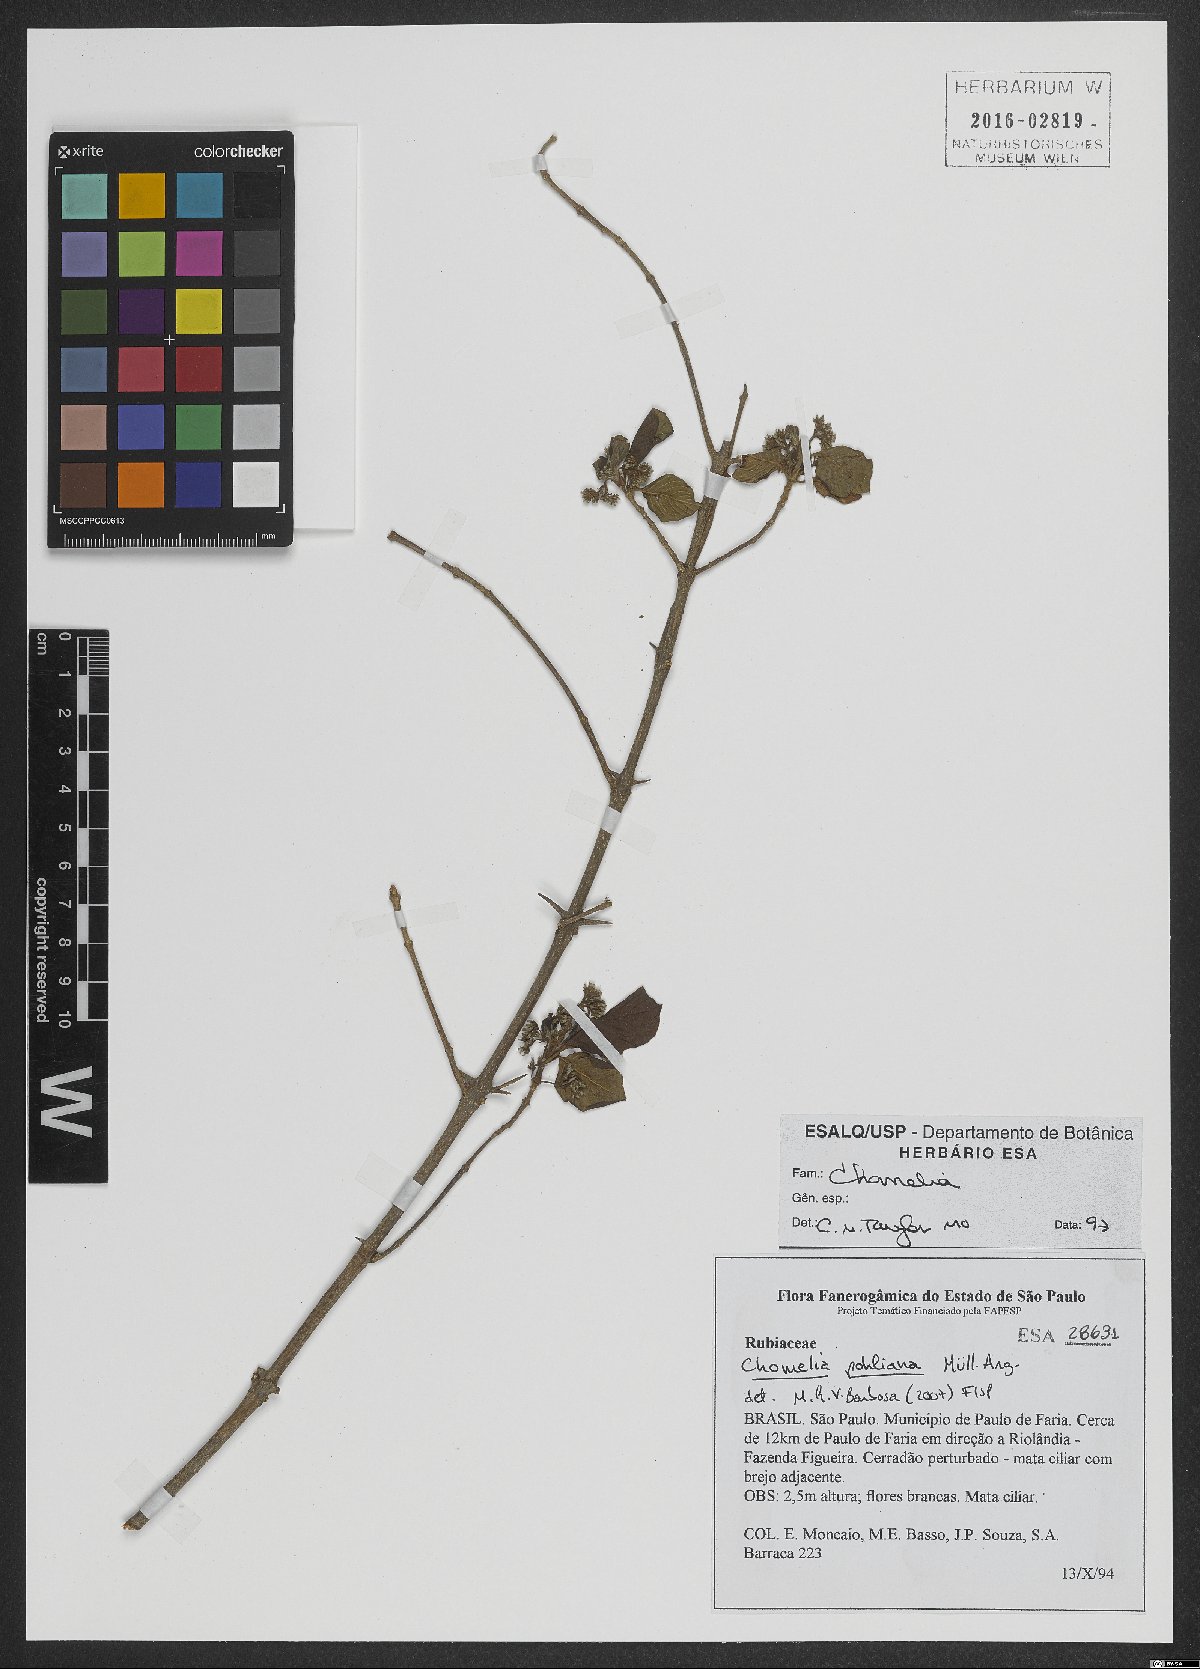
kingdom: Plantae
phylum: Tracheophyta
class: Magnoliopsida
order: Gentianales
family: Rubiaceae
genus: Chomelia
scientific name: Chomelia
